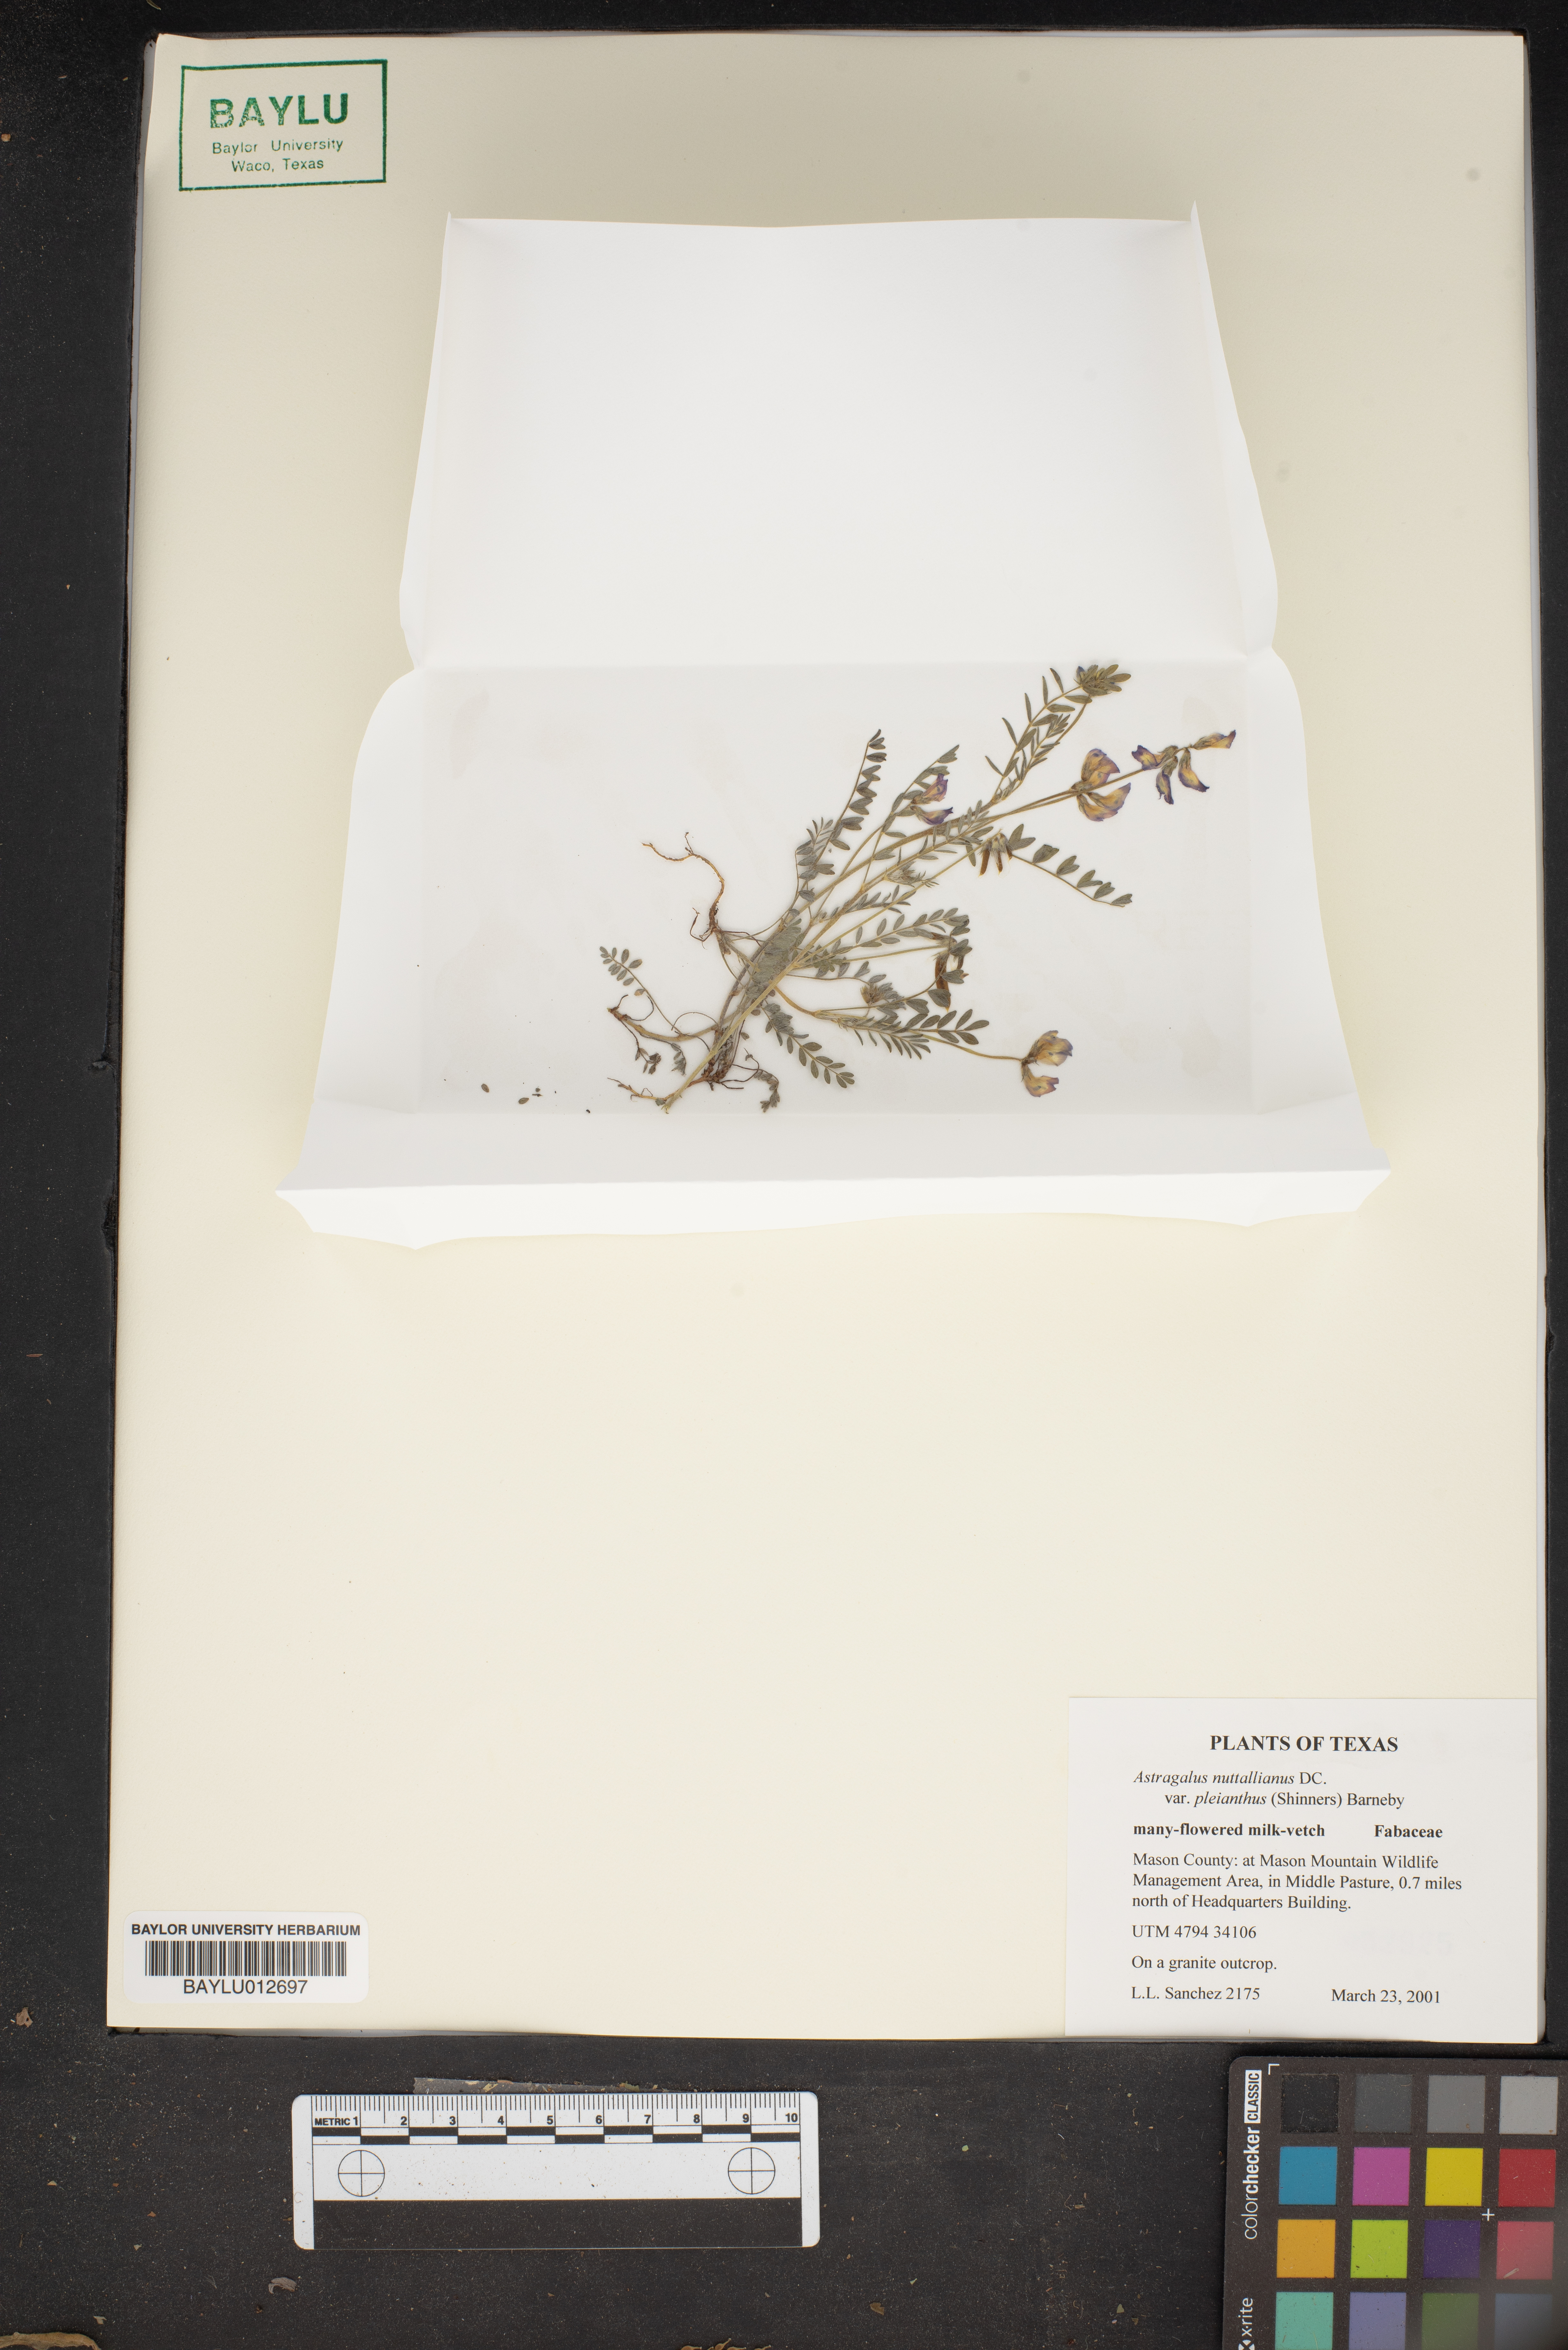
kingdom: Plantae
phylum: Tracheophyta
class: Magnoliopsida
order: Fabales
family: Fabaceae
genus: Astragalus
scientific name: Astragalus pleianthus
